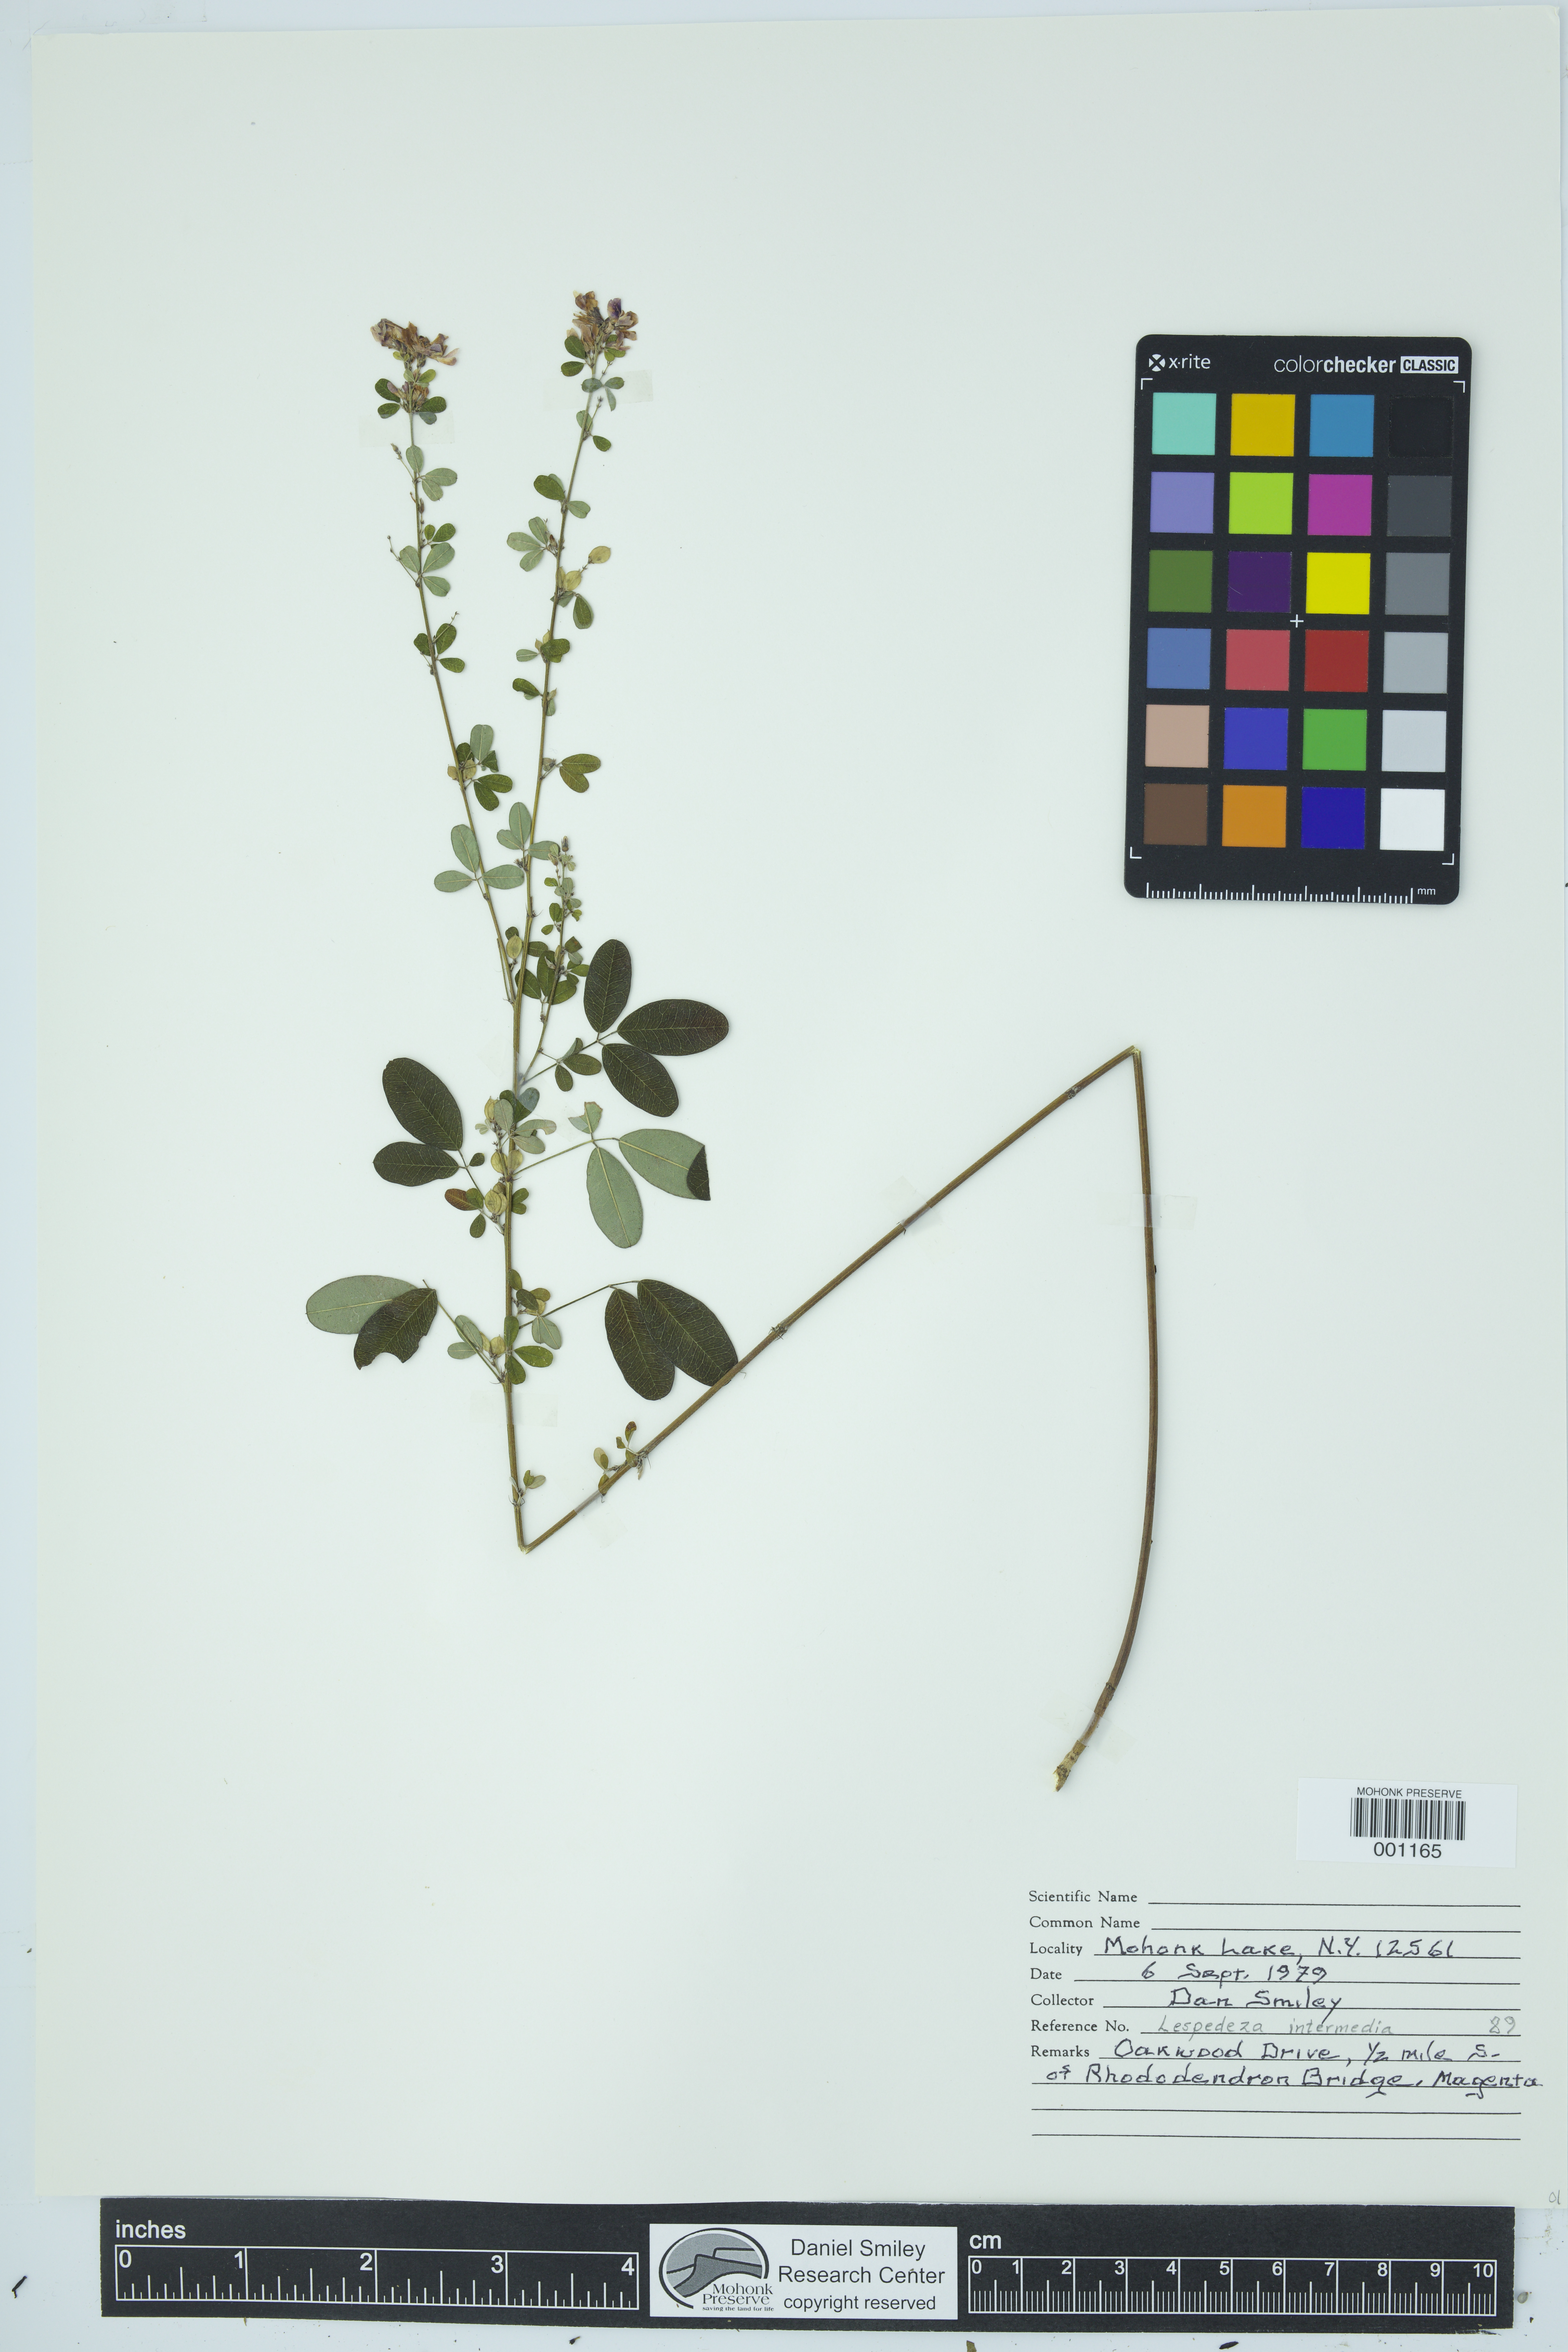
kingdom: Plantae
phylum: Tracheophyta
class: Magnoliopsida
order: Fabales
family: Fabaceae
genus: Lespedeza
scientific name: Lespedeza
